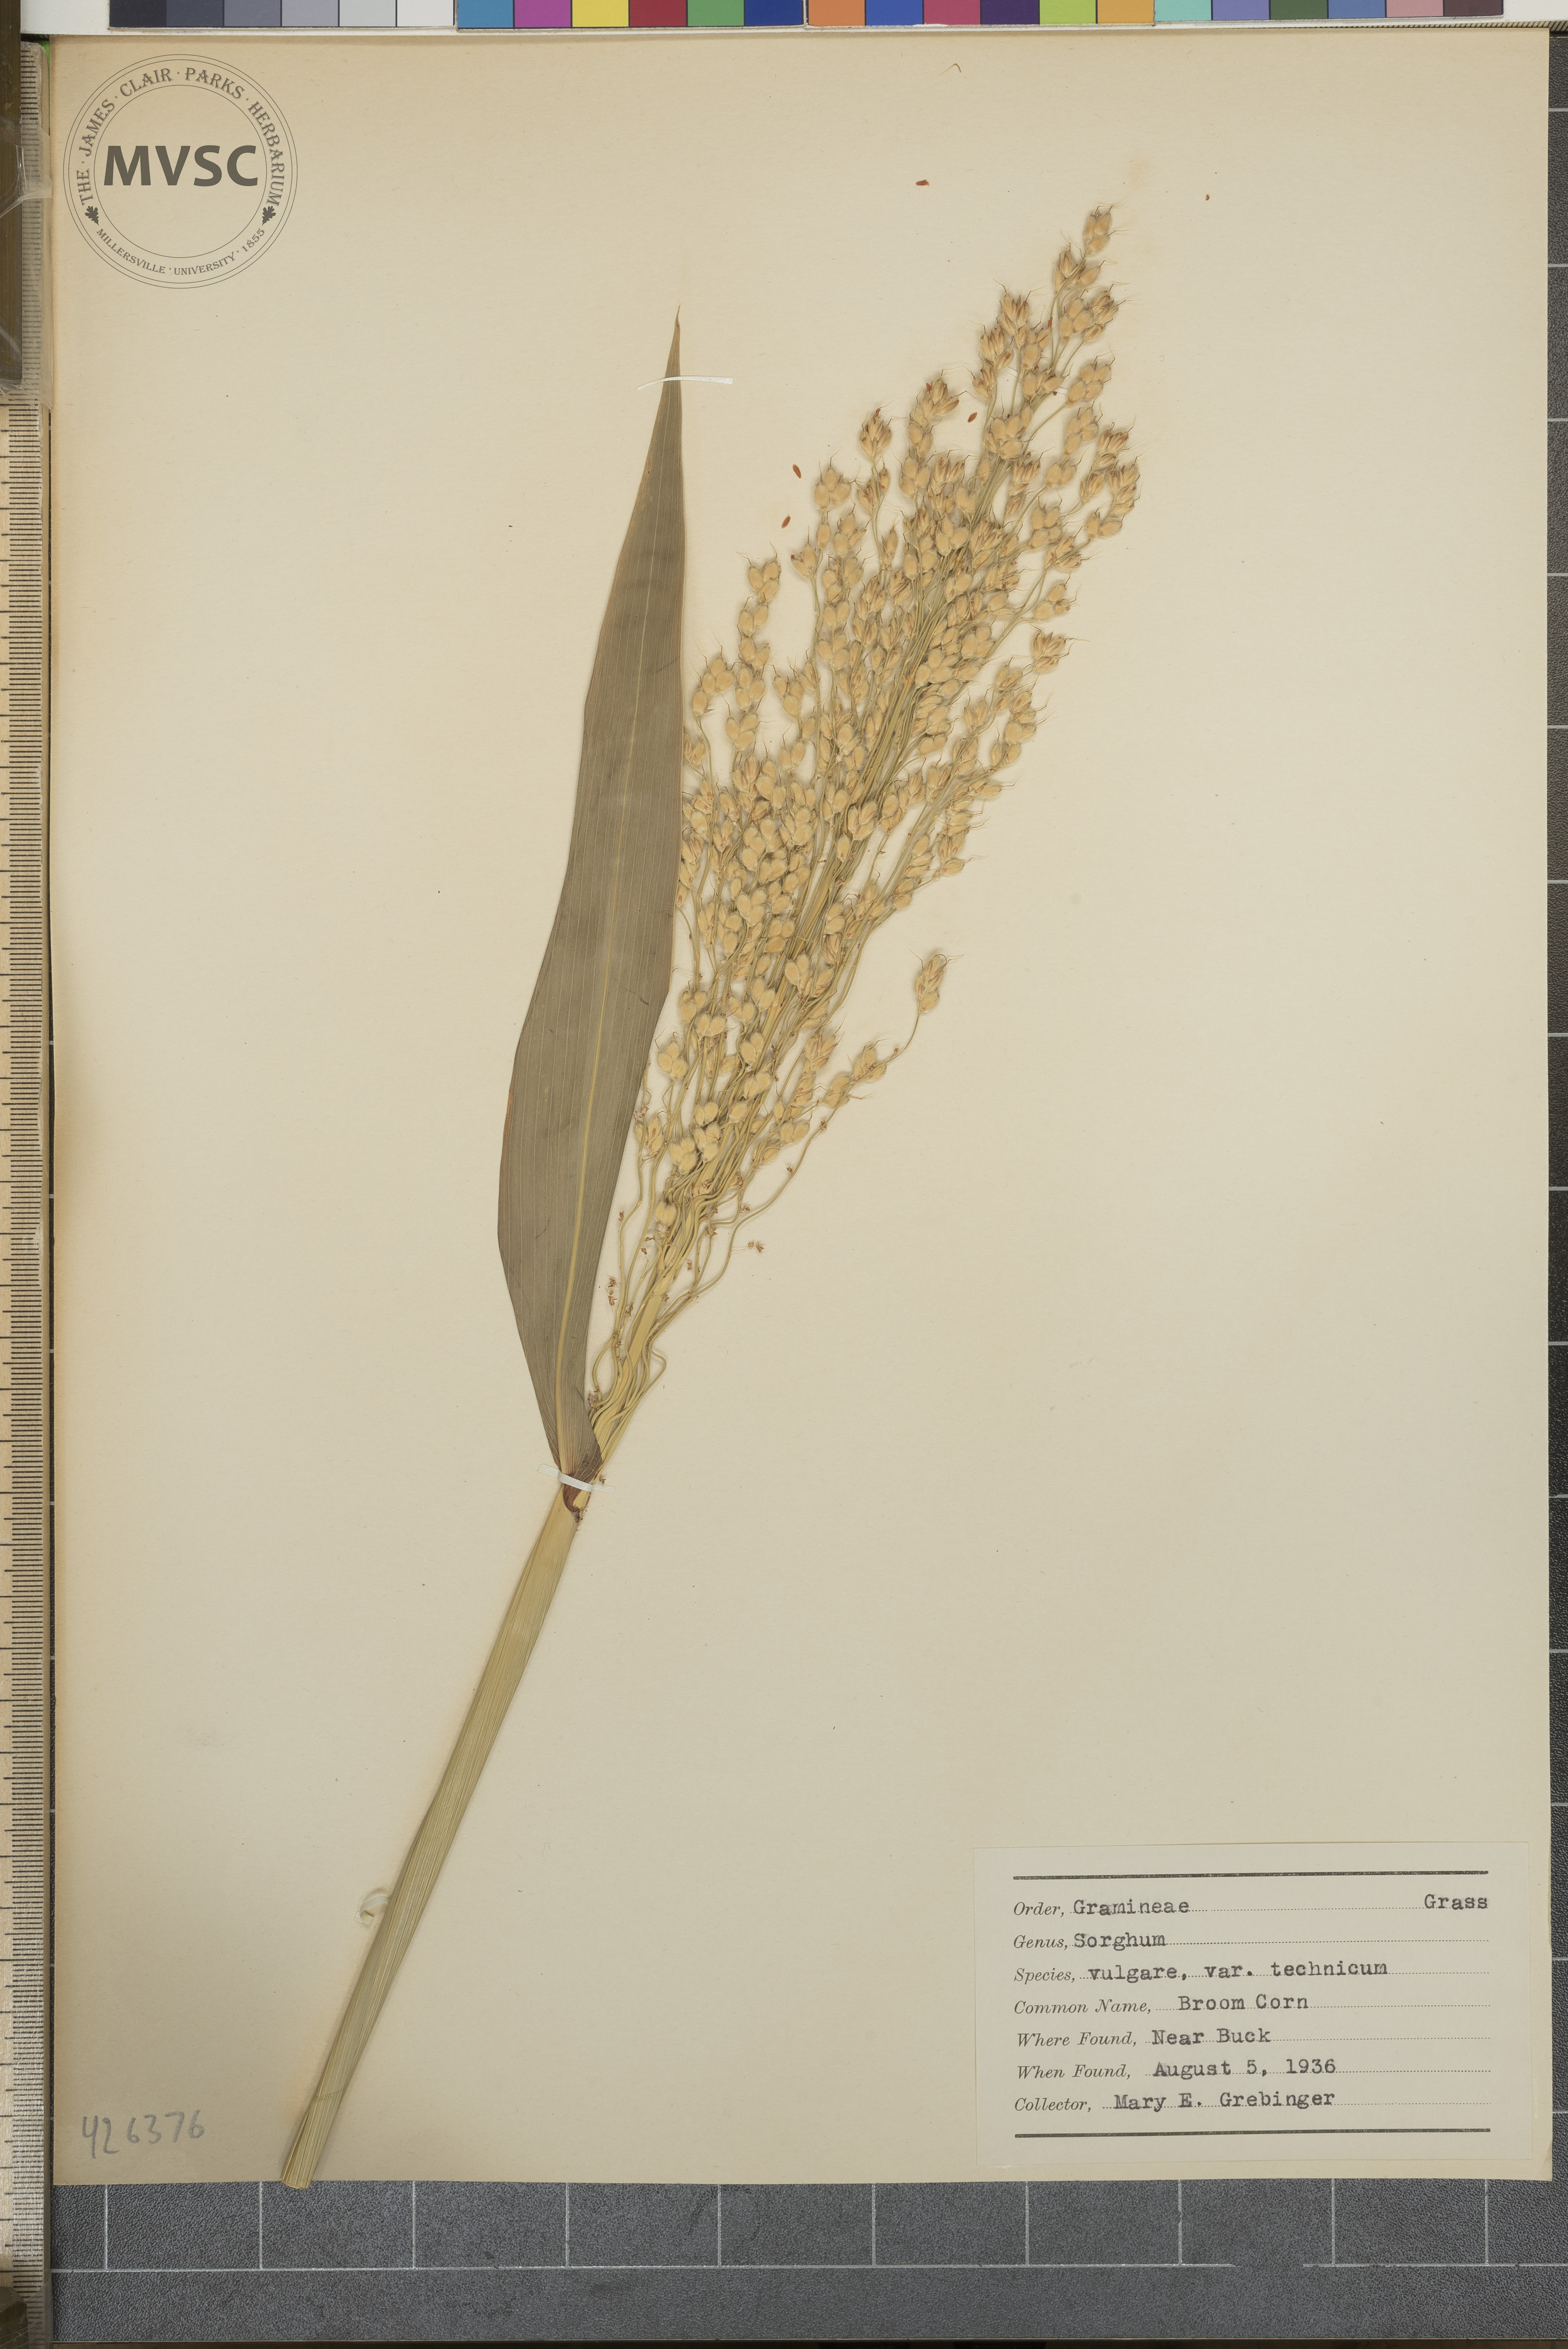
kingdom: Plantae
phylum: Tracheophyta
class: Liliopsida
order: Poales
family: Poaceae
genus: Sorghum
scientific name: Sorghum bicolor
